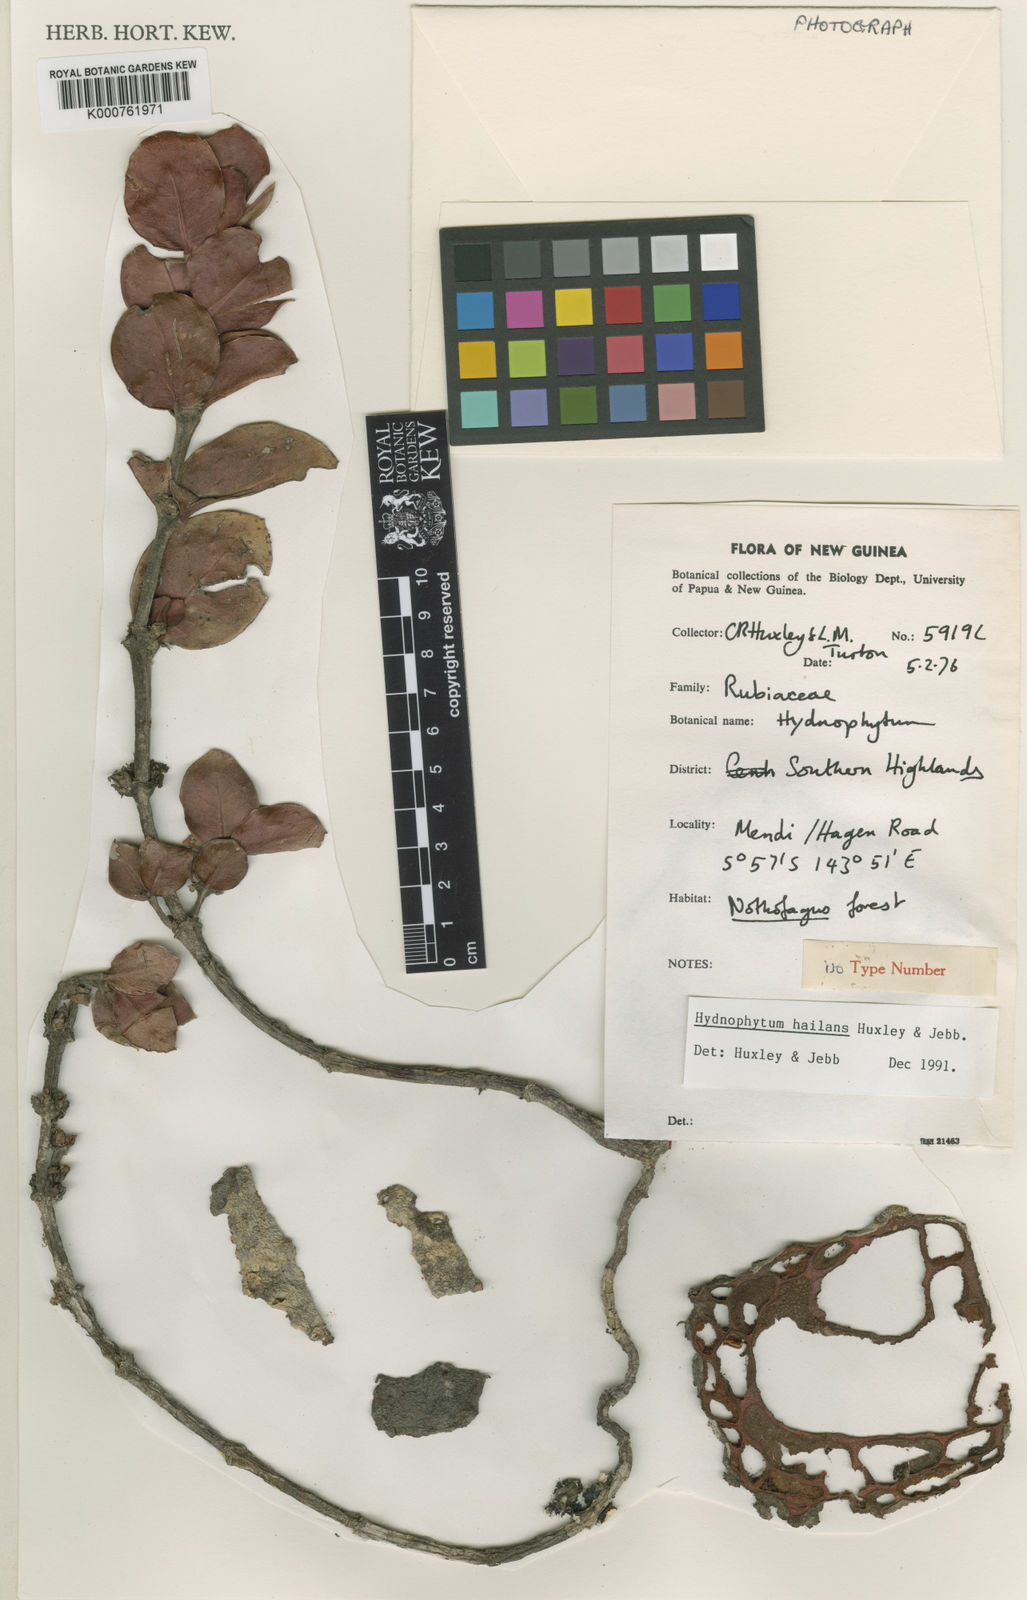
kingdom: Plantae
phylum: Tracheophyta
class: Magnoliopsida
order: Gentianales
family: Rubiaceae
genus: Hydnophytum
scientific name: Hydnophytum
